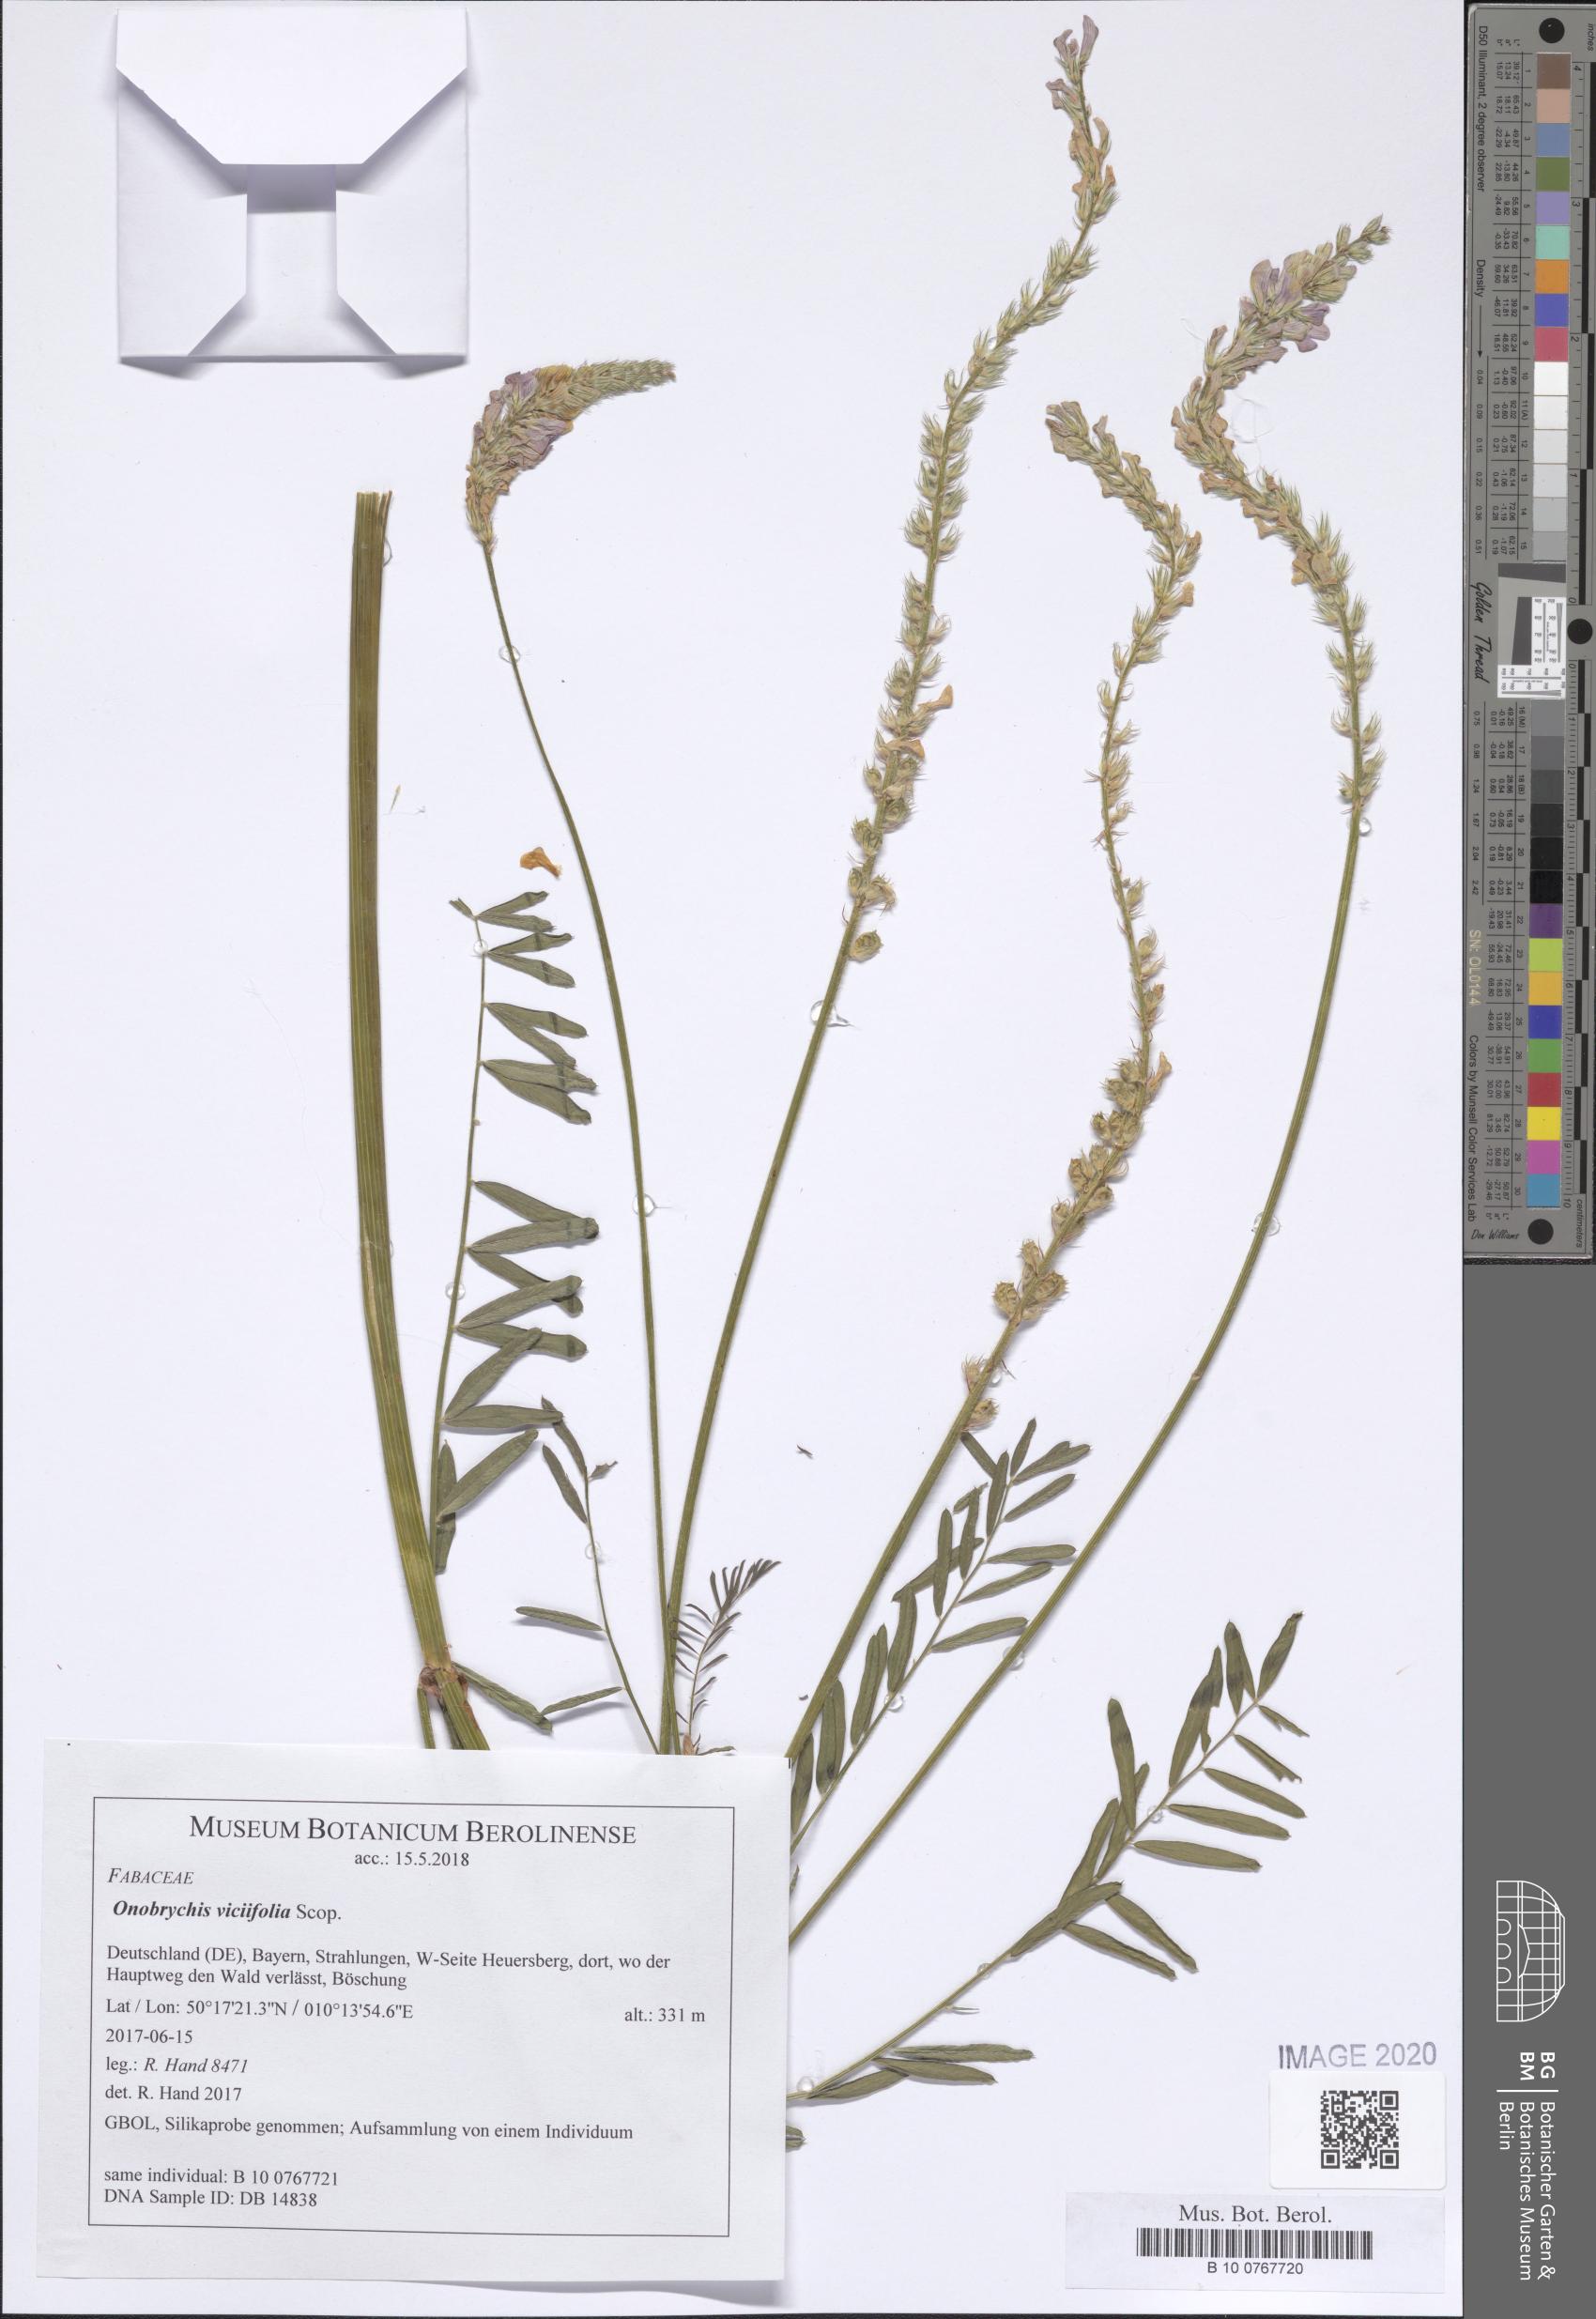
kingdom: Plantae
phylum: Tracheophyta
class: Magnoliopsida
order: Fabales
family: Fabaceae
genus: Onobrychis
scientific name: Onobrychis viciifolia
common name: Sainfoin
